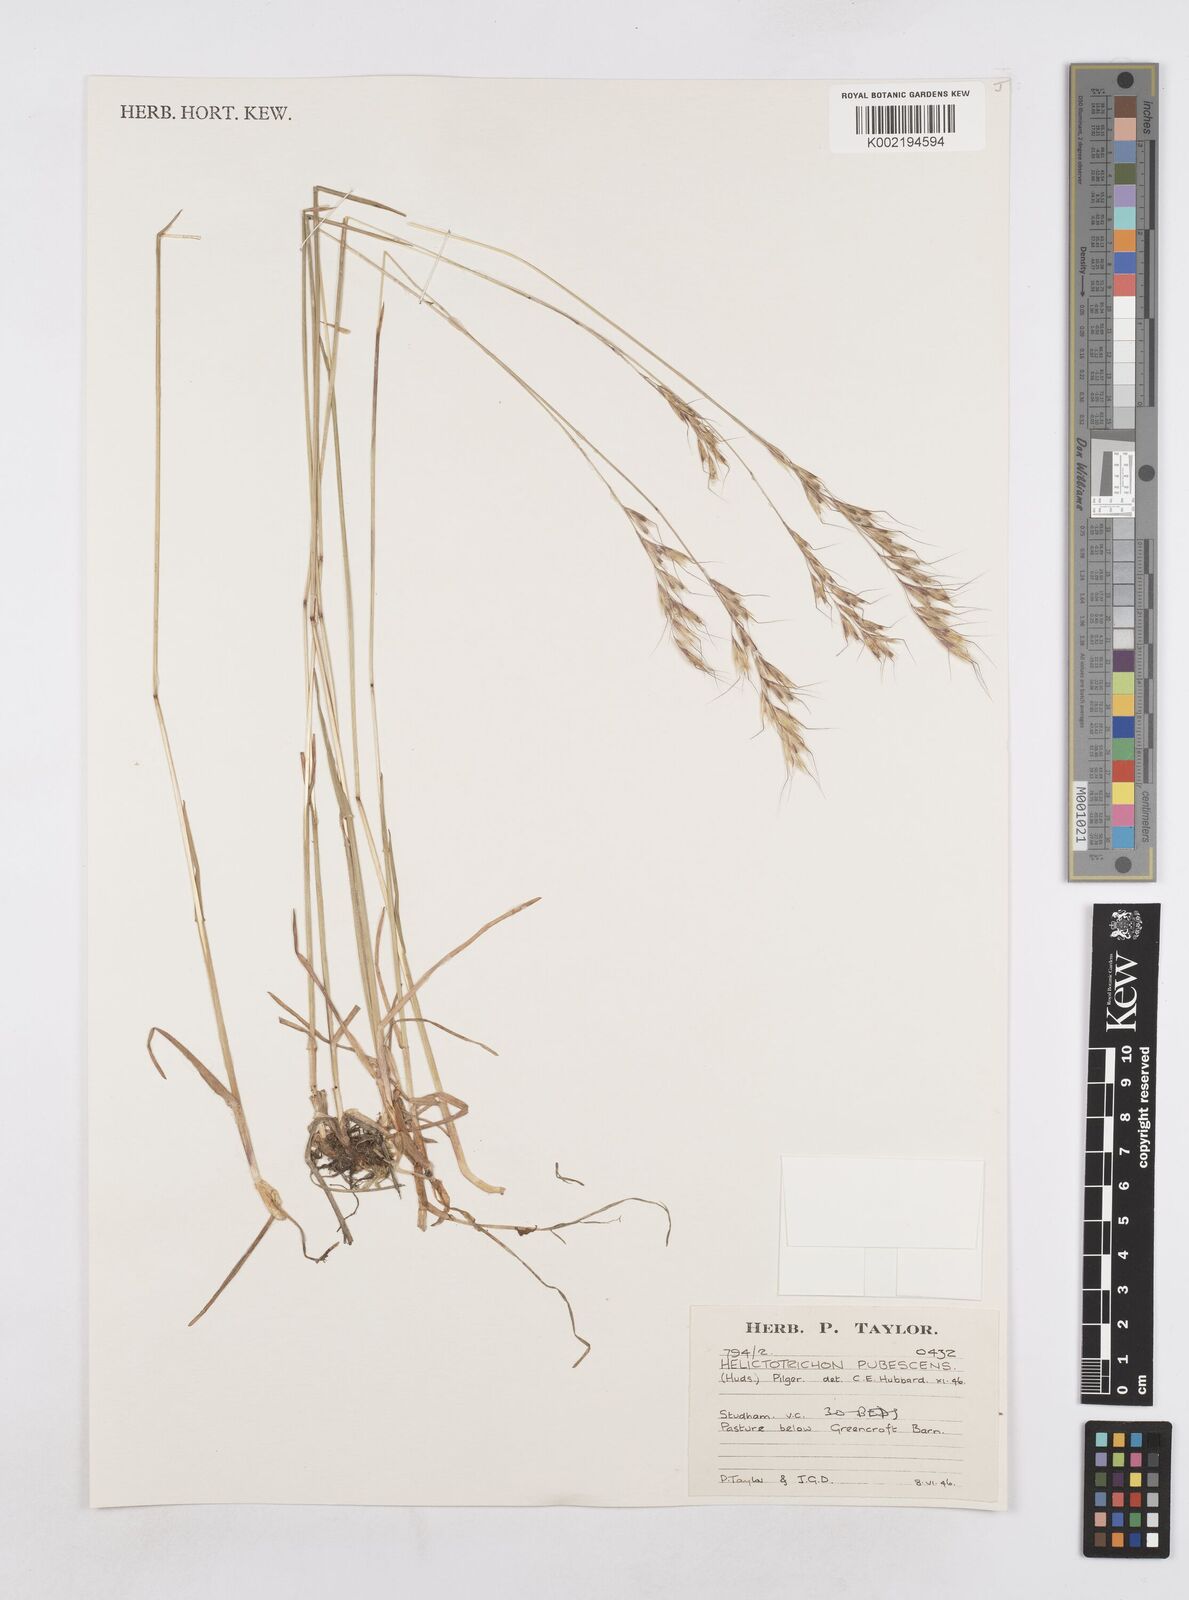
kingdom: Plantae
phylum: Tracheophyta
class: Liliopsida
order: Poales
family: Poaceae
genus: Avenula
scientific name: Avenula pubescens
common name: Downy alpine oatgrass
